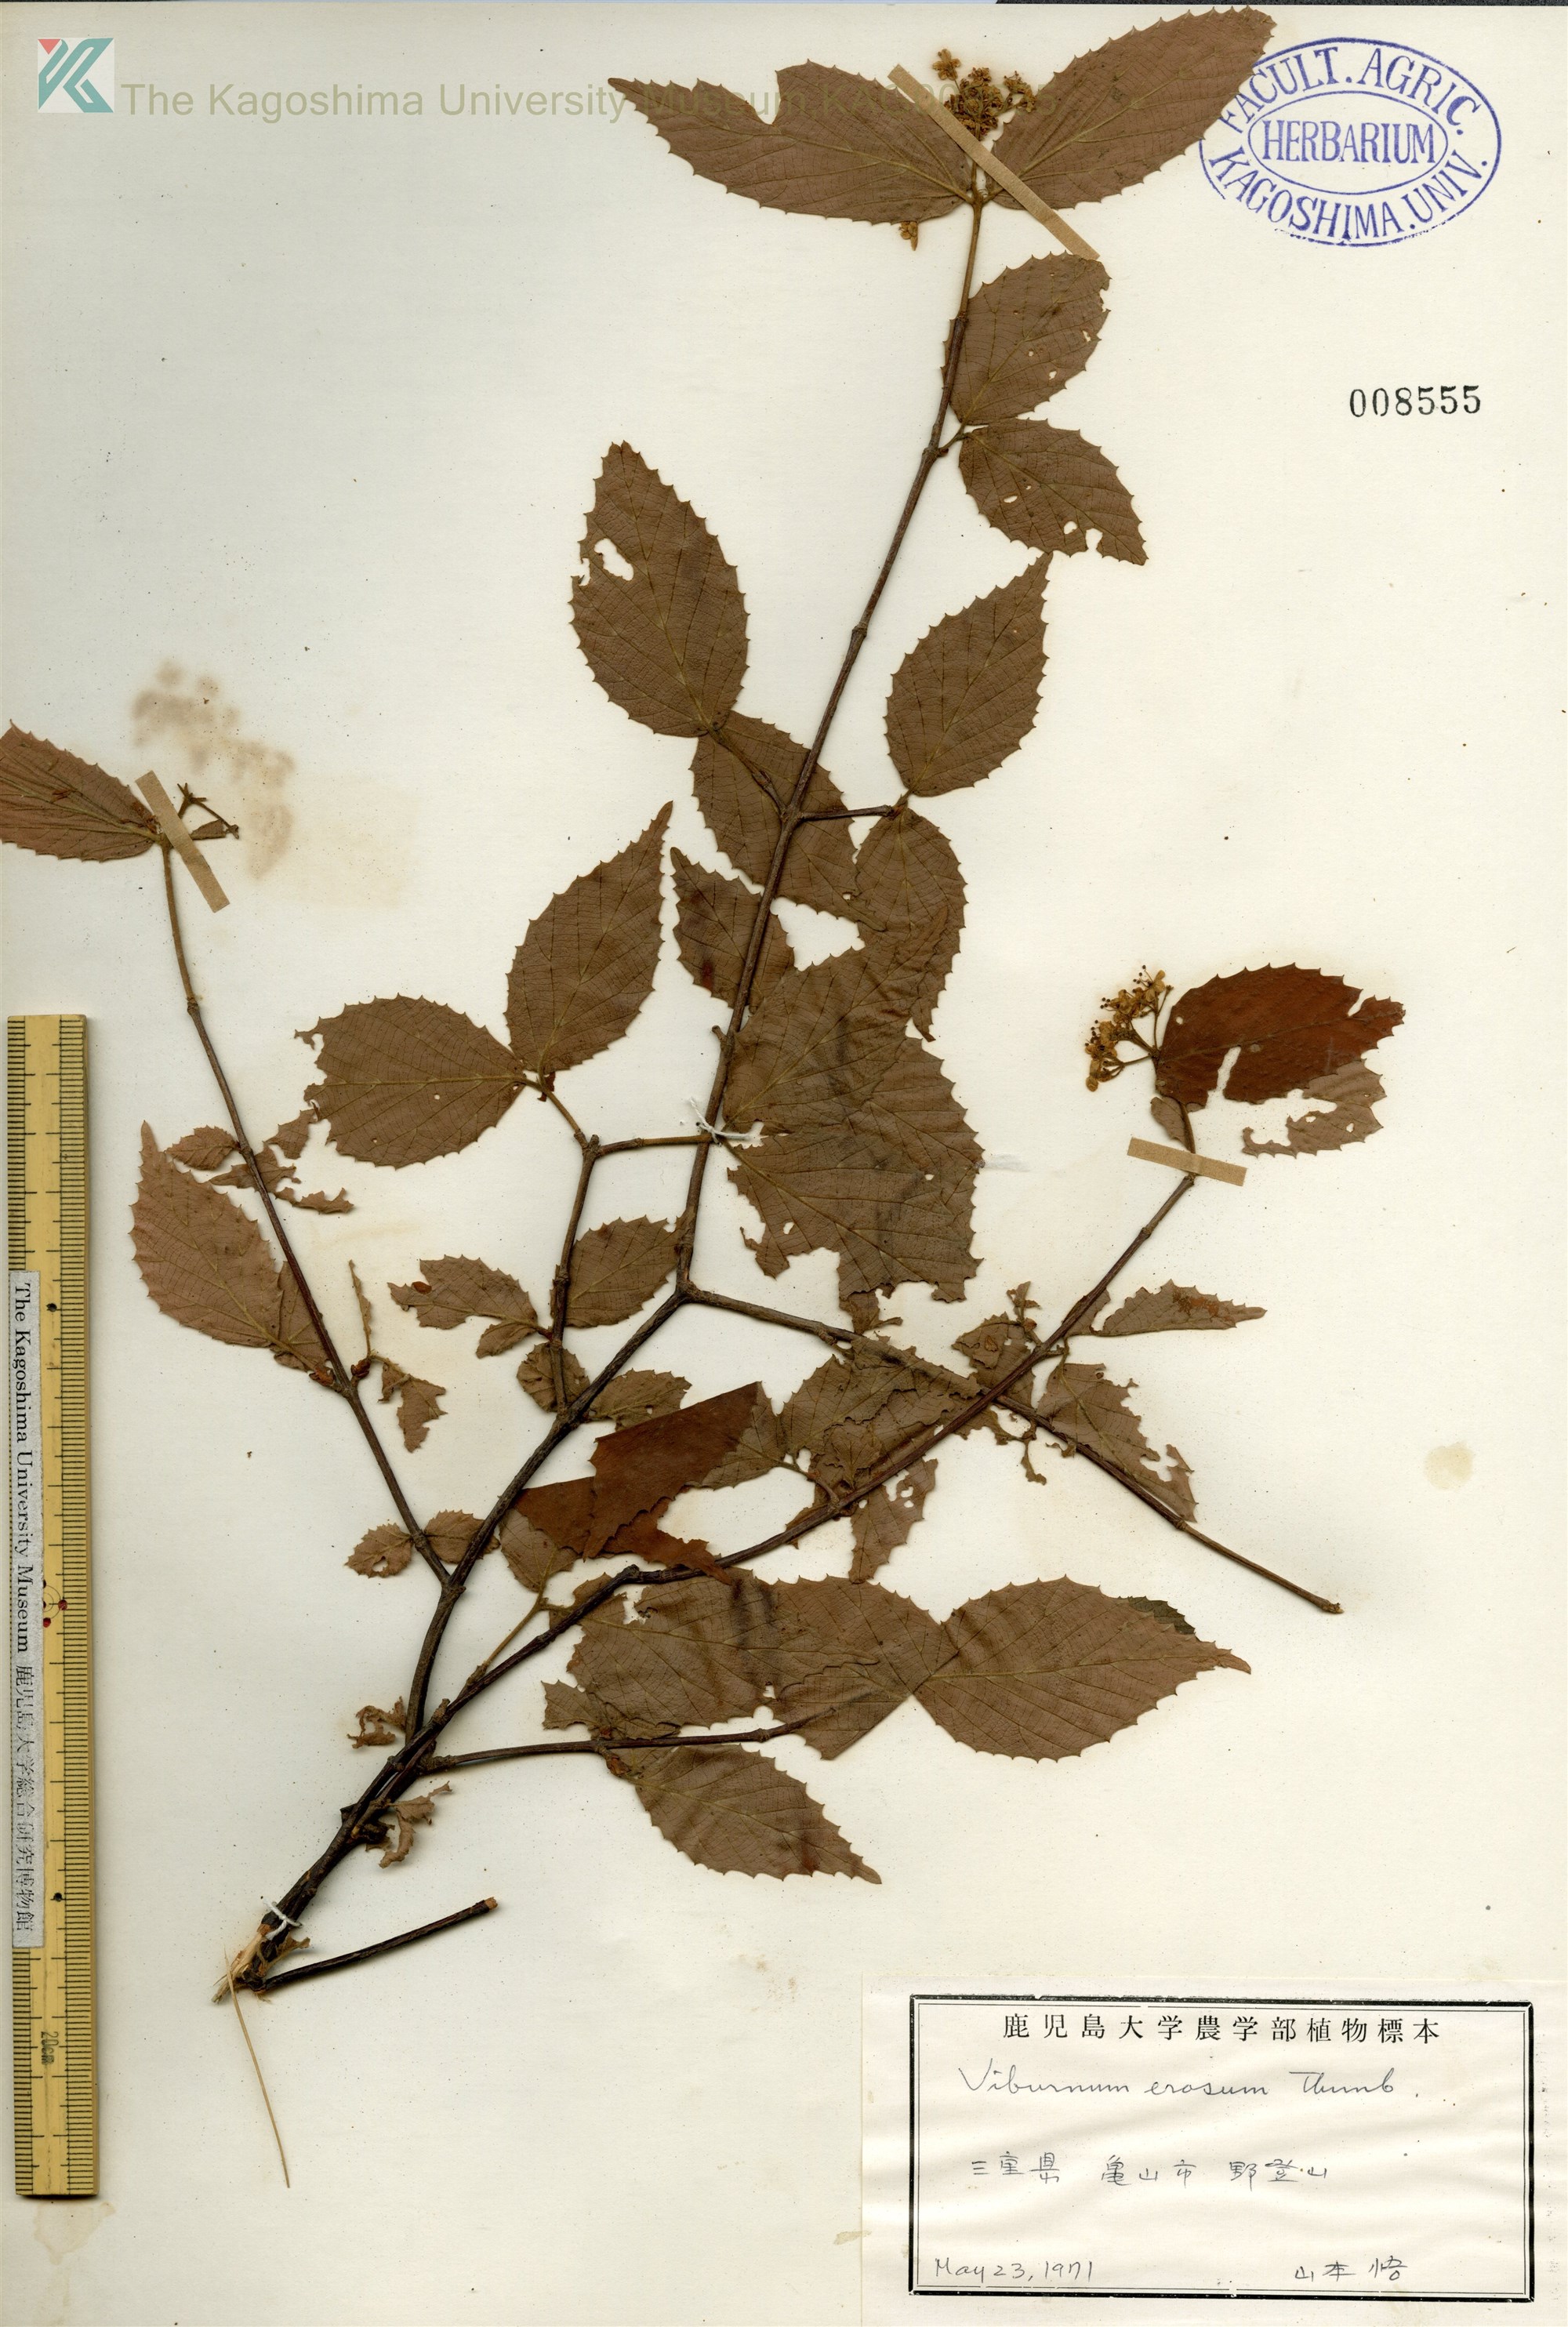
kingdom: Plantae
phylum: Tracheophyta
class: Magnoliopsida
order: Dipsacales
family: Viburnaceae
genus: Viburnum
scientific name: Viburnum erosum
